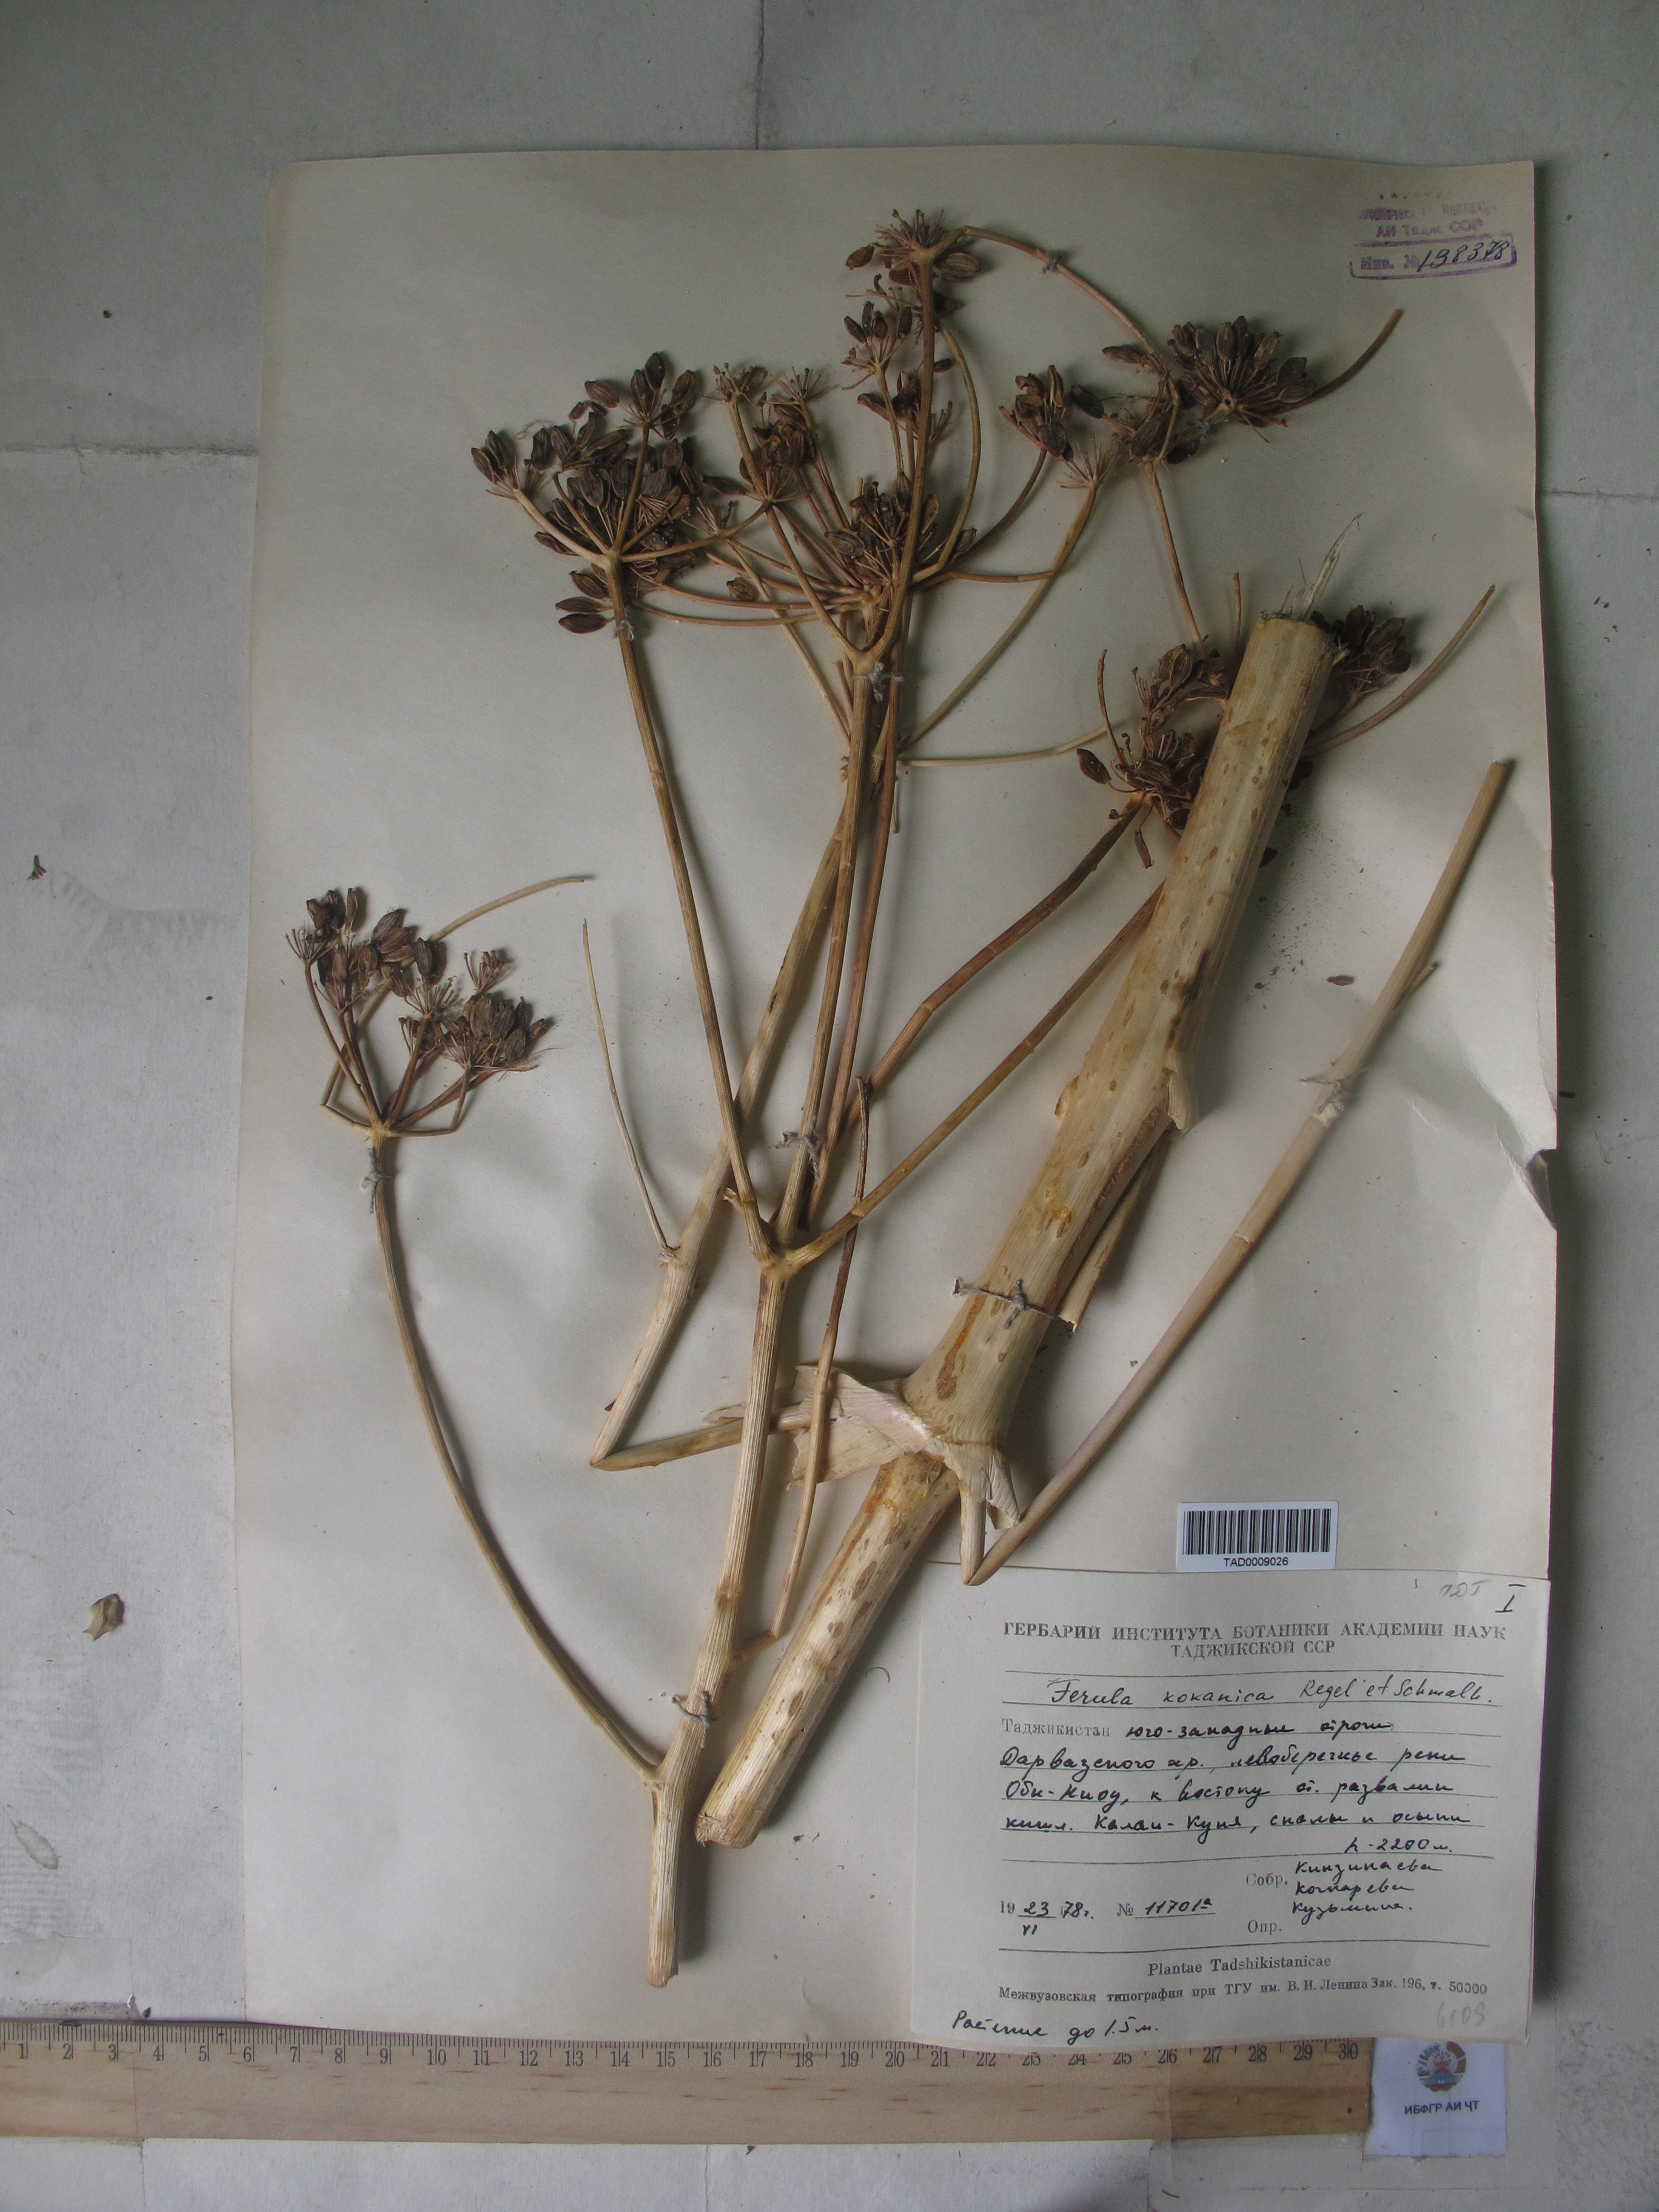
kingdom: Plantae
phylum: Tracheophyta
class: Magnoliopsida
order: Apiales
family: Apiaceae
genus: Ferula
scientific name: Ferula kokanica
